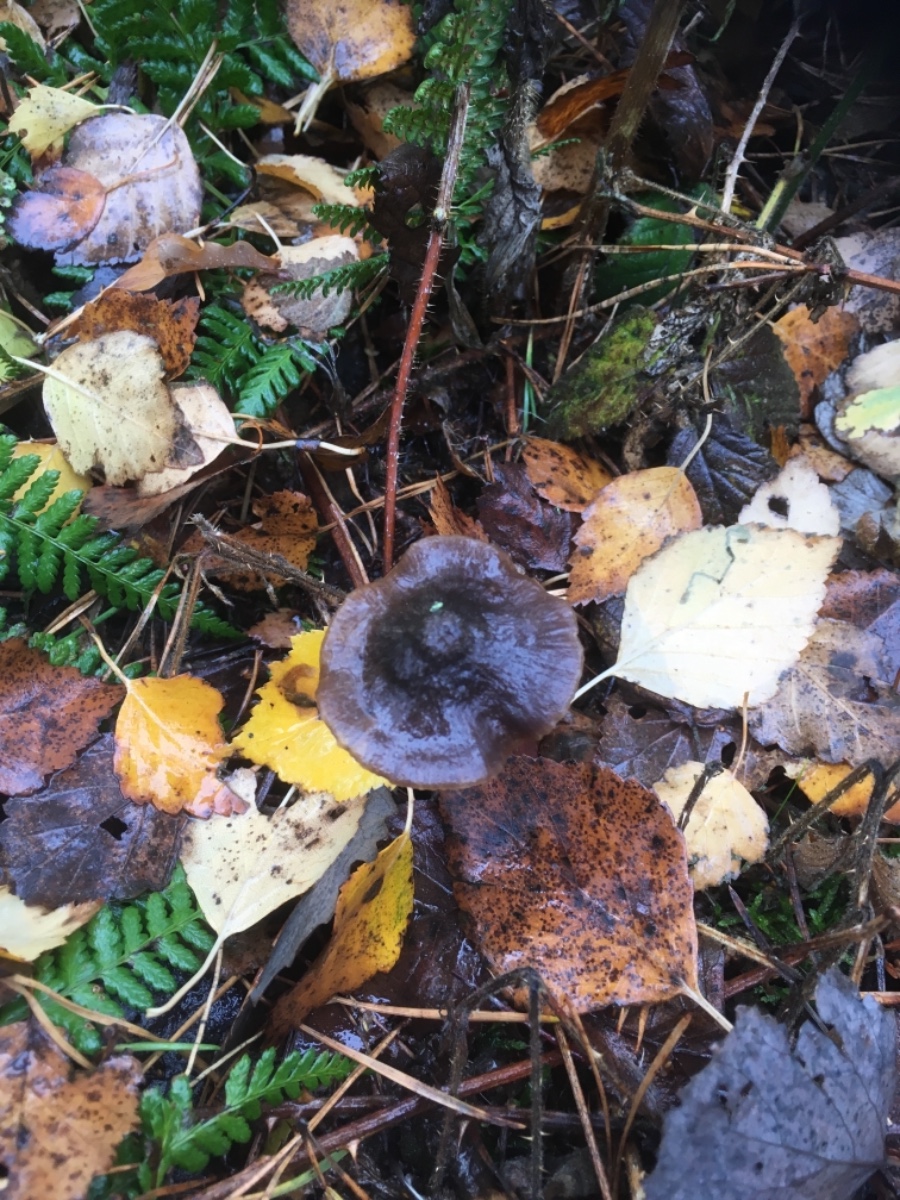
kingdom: Fungi
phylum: Basidiomycota
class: Agaricomycetes
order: Agaricales
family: Entolomataceae
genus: Entoloma
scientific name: Entoloma
